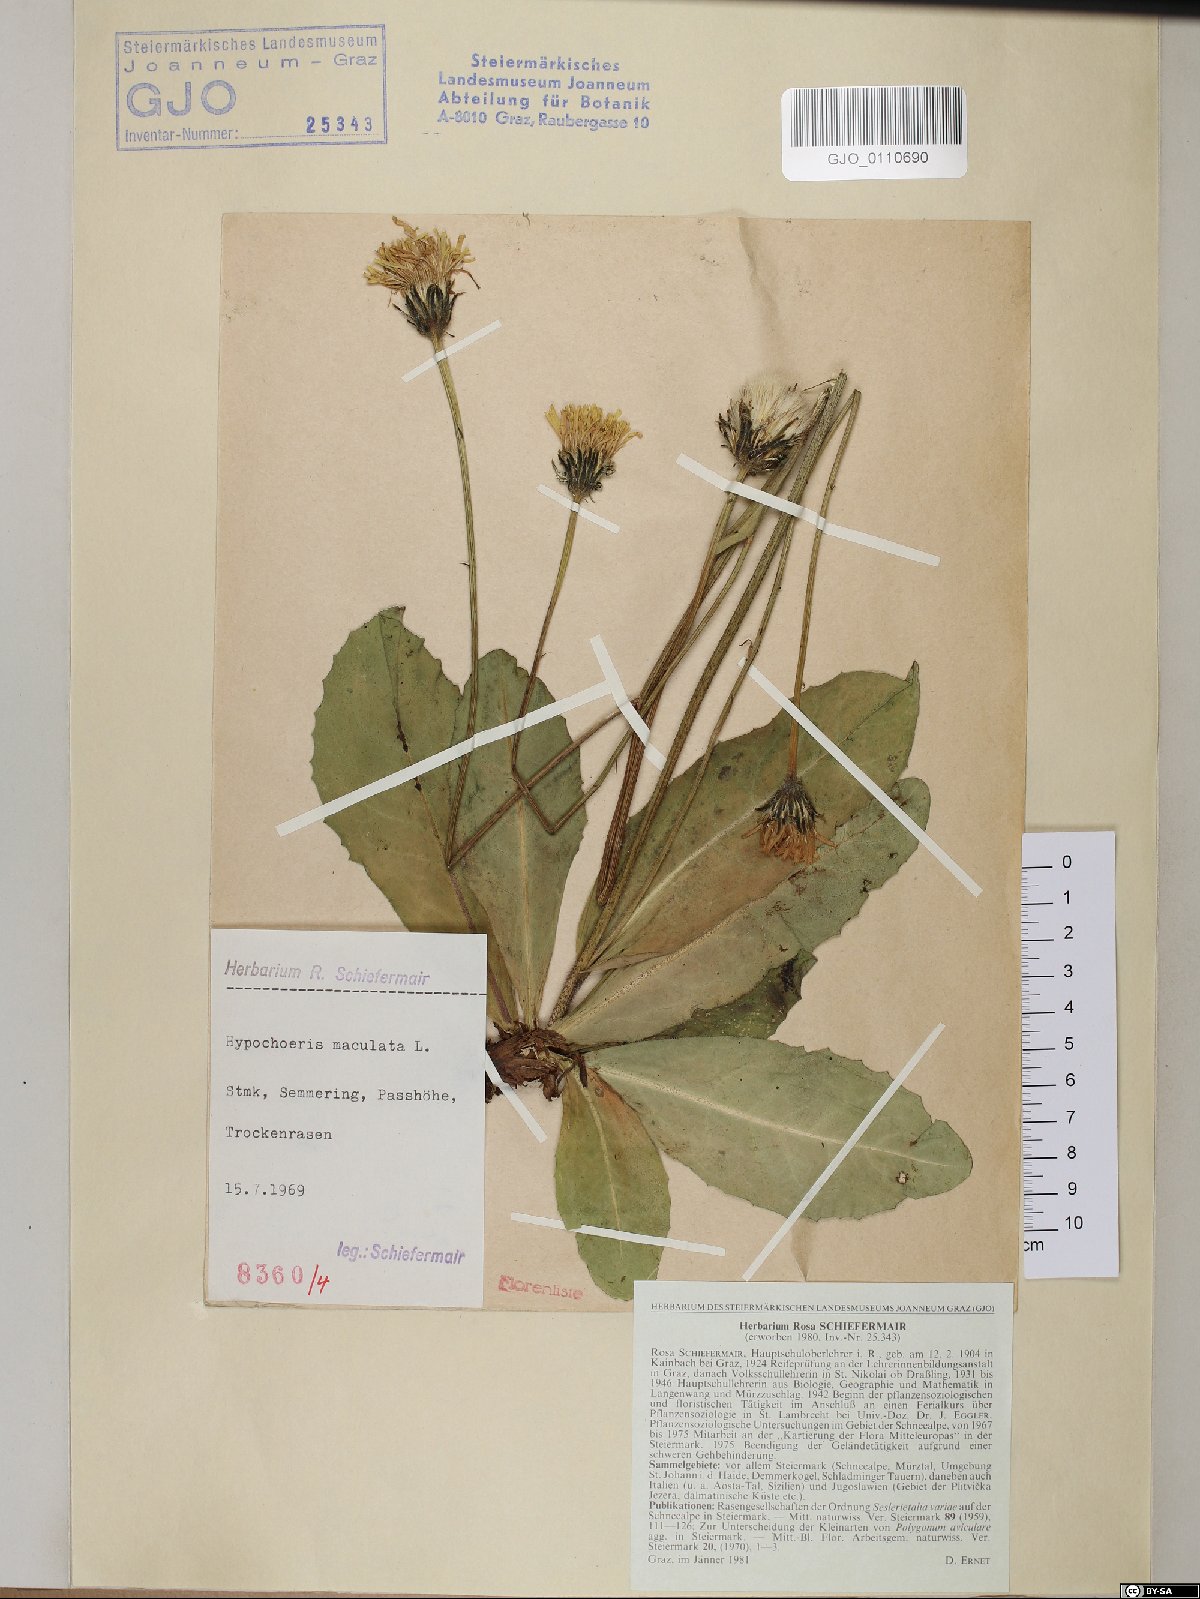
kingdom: Plantae
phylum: Tracheophyta
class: Magnoliopsida
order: Asterales
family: Asteraceae
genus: Trommsdorffia
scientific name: Trommsdorffia maculata
